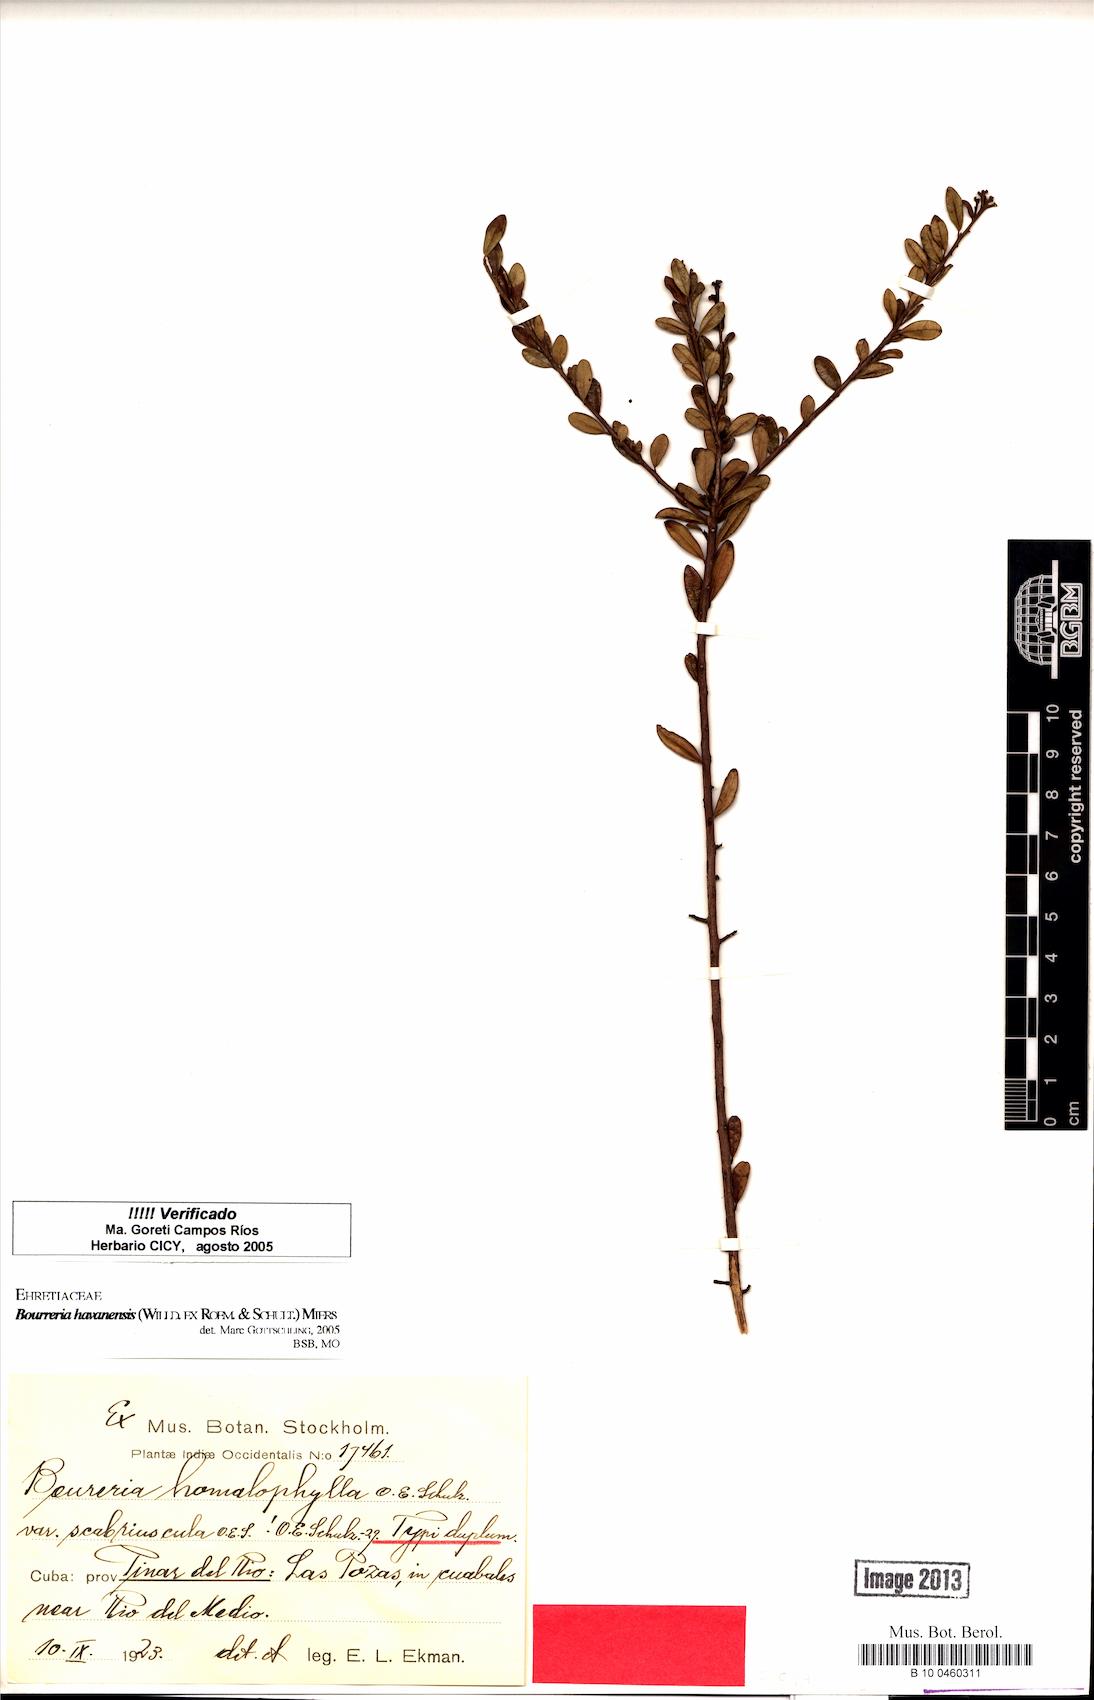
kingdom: Plantae
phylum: Tracheophyta
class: Magnoliopsida
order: Boraginales
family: Ehretiaceae
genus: Bourreria
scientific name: Bourreria havanensis
